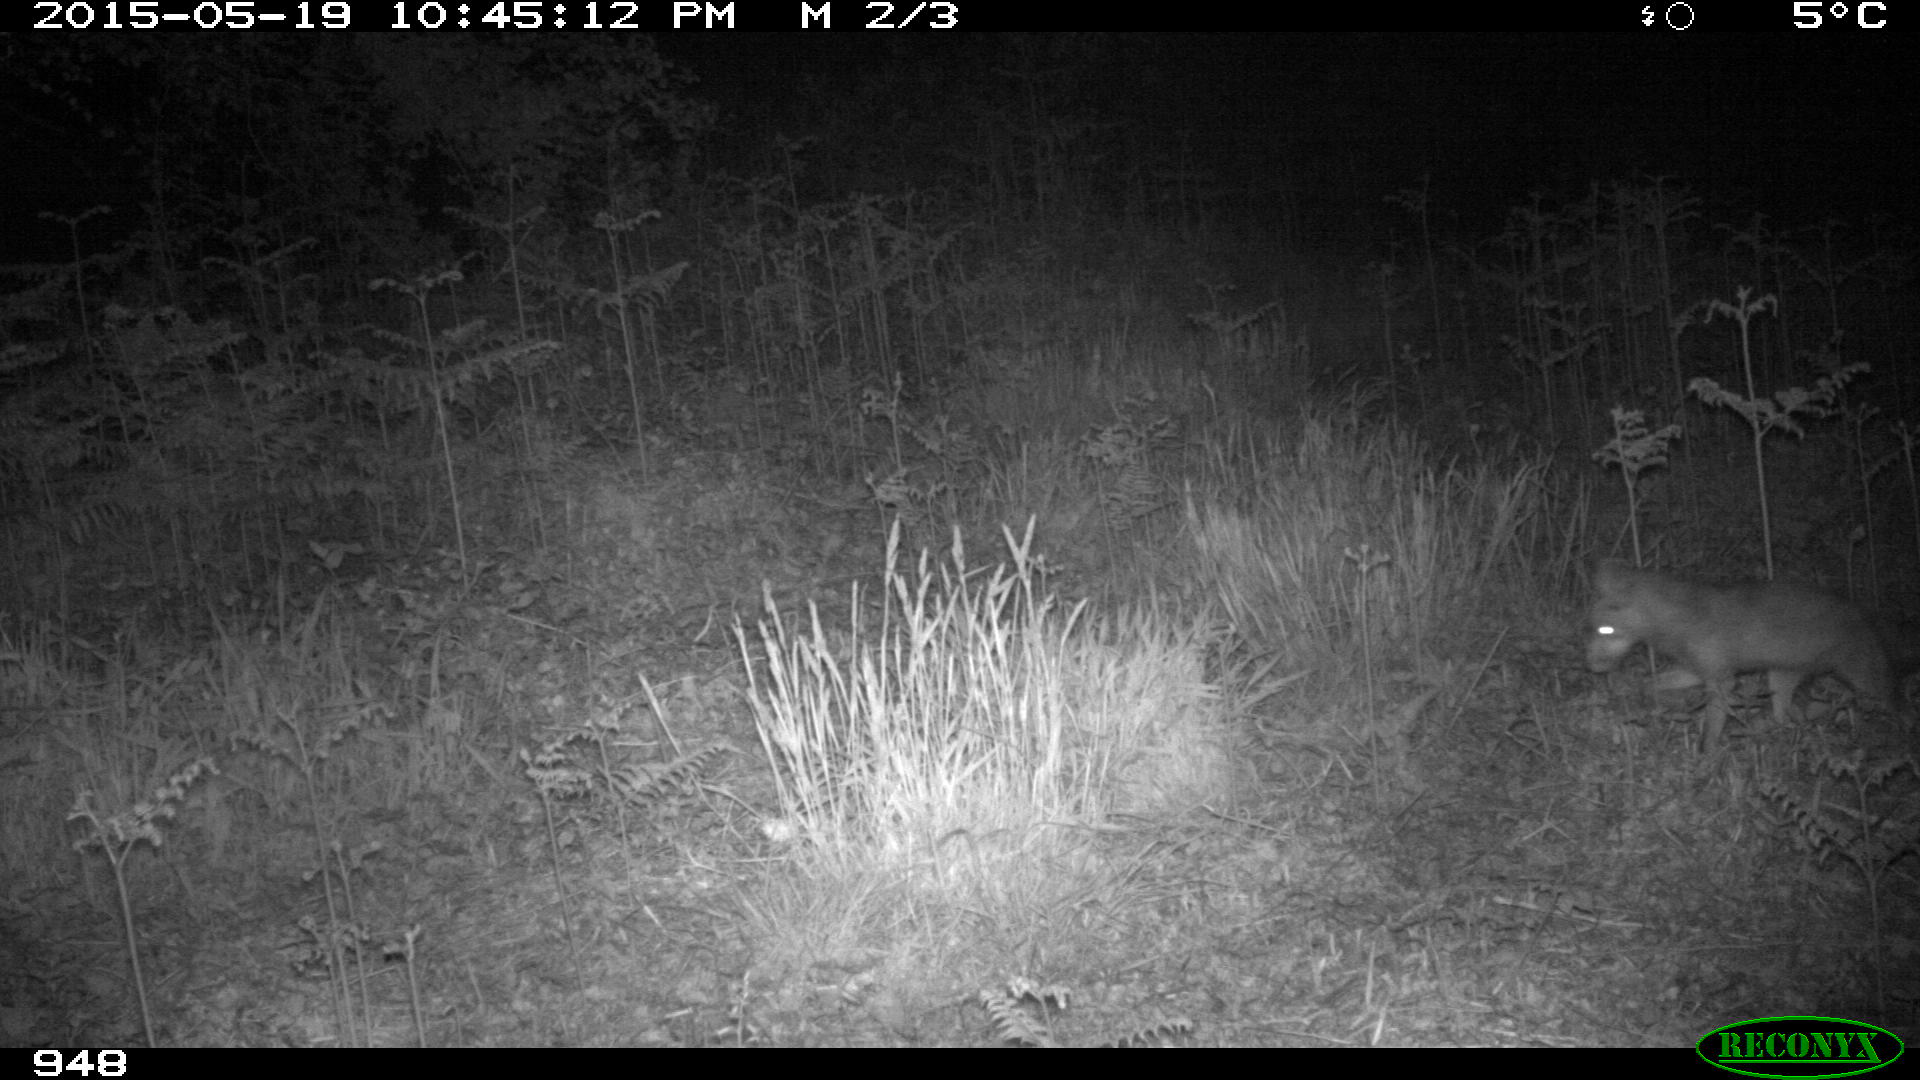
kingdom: Animalia
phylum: Chordata
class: Mammalia
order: Carnivora
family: Canidae
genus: Vulpes
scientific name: Vulpes vulpes
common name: Red fox
